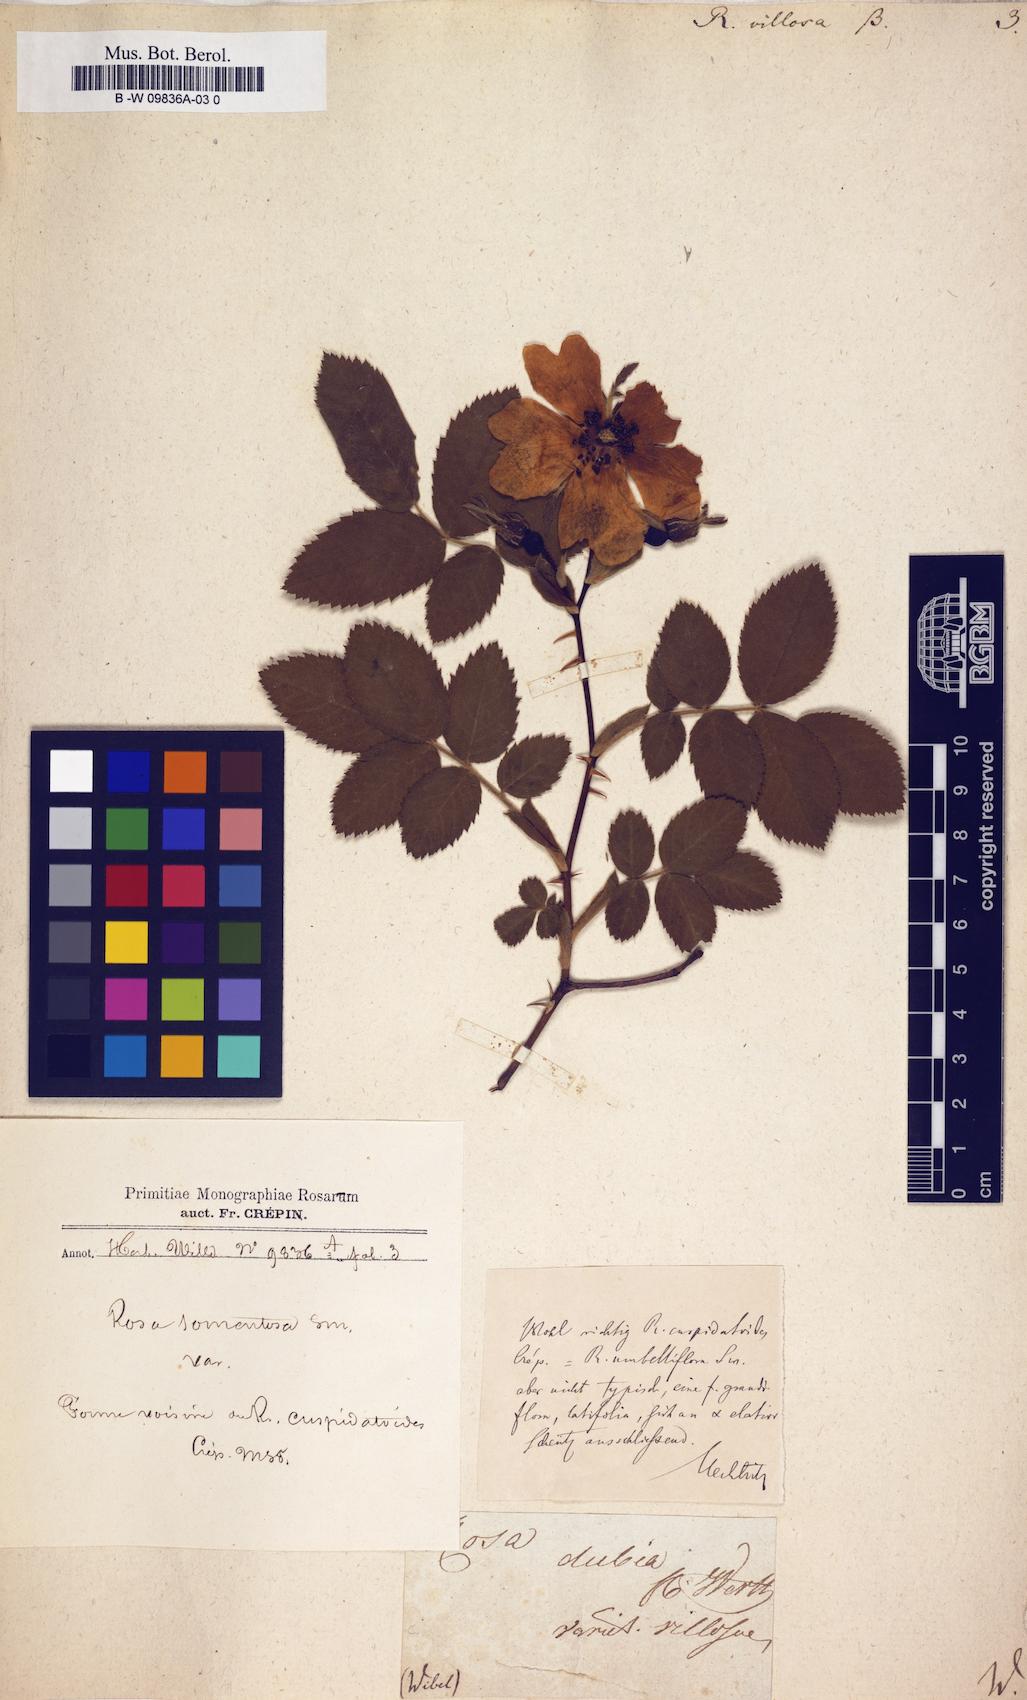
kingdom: Plantae
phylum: Tracheophyta
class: Magnoliopsida
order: Rosales
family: Rosaceae
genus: Rosa
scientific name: Rosa villosa
